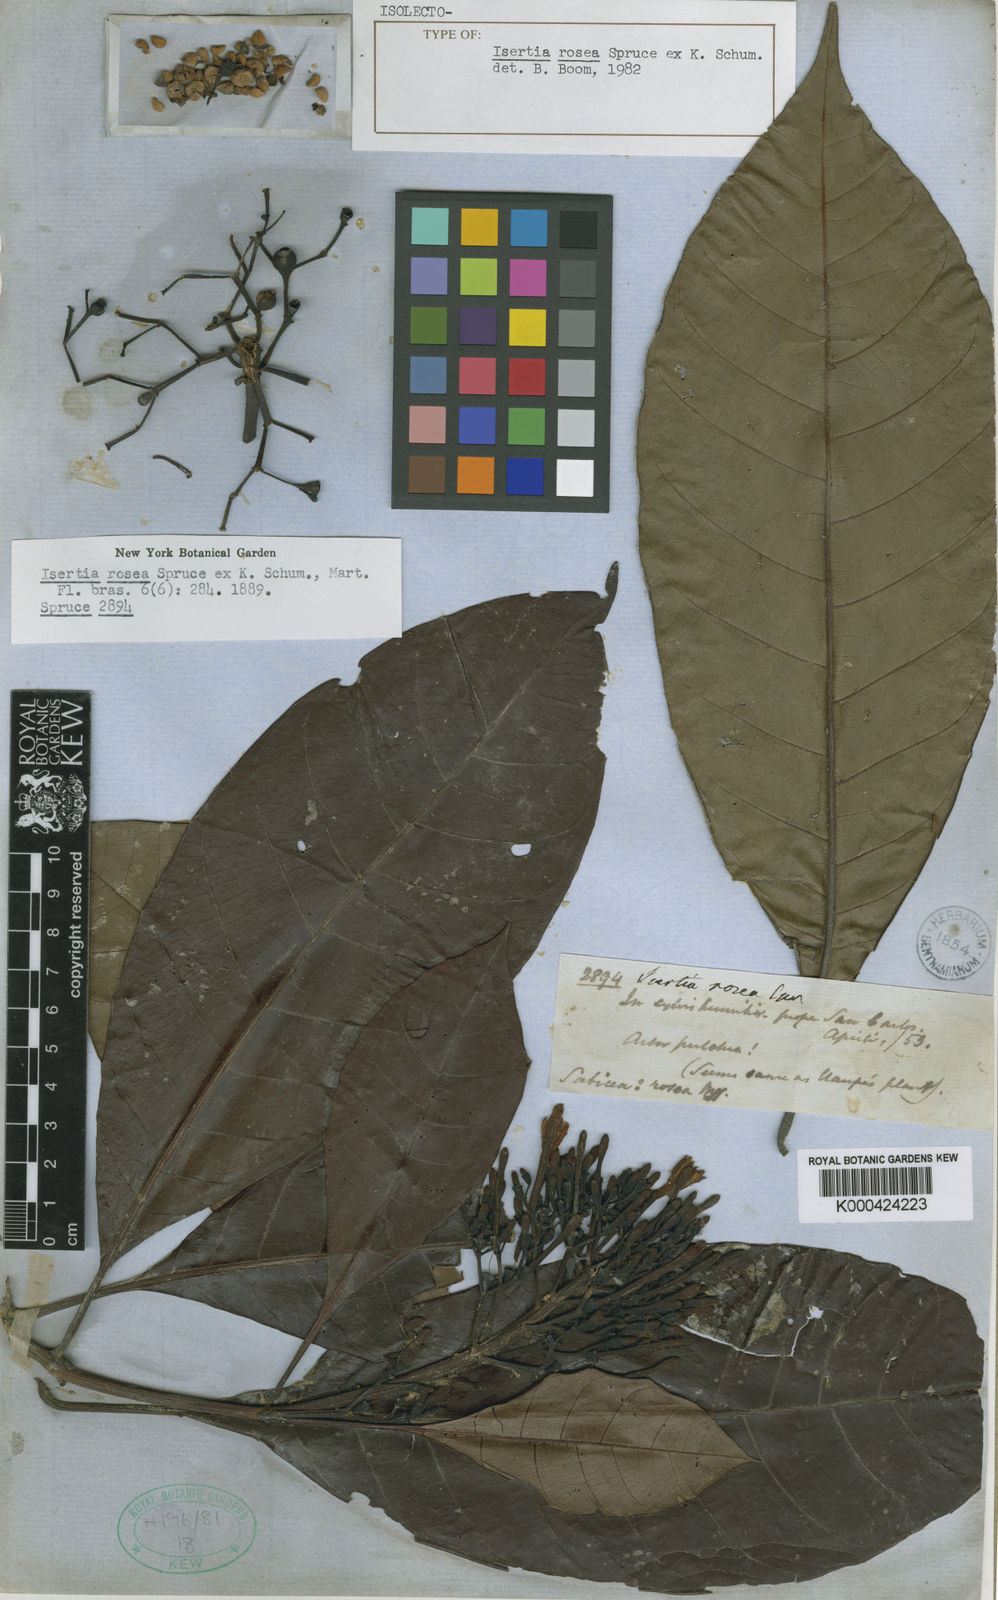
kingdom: Plantae
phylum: Tracheophyta
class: Magnoliopsida
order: Gentianales
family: Rubiaceae
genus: Isertia
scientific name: Isertia rosea
